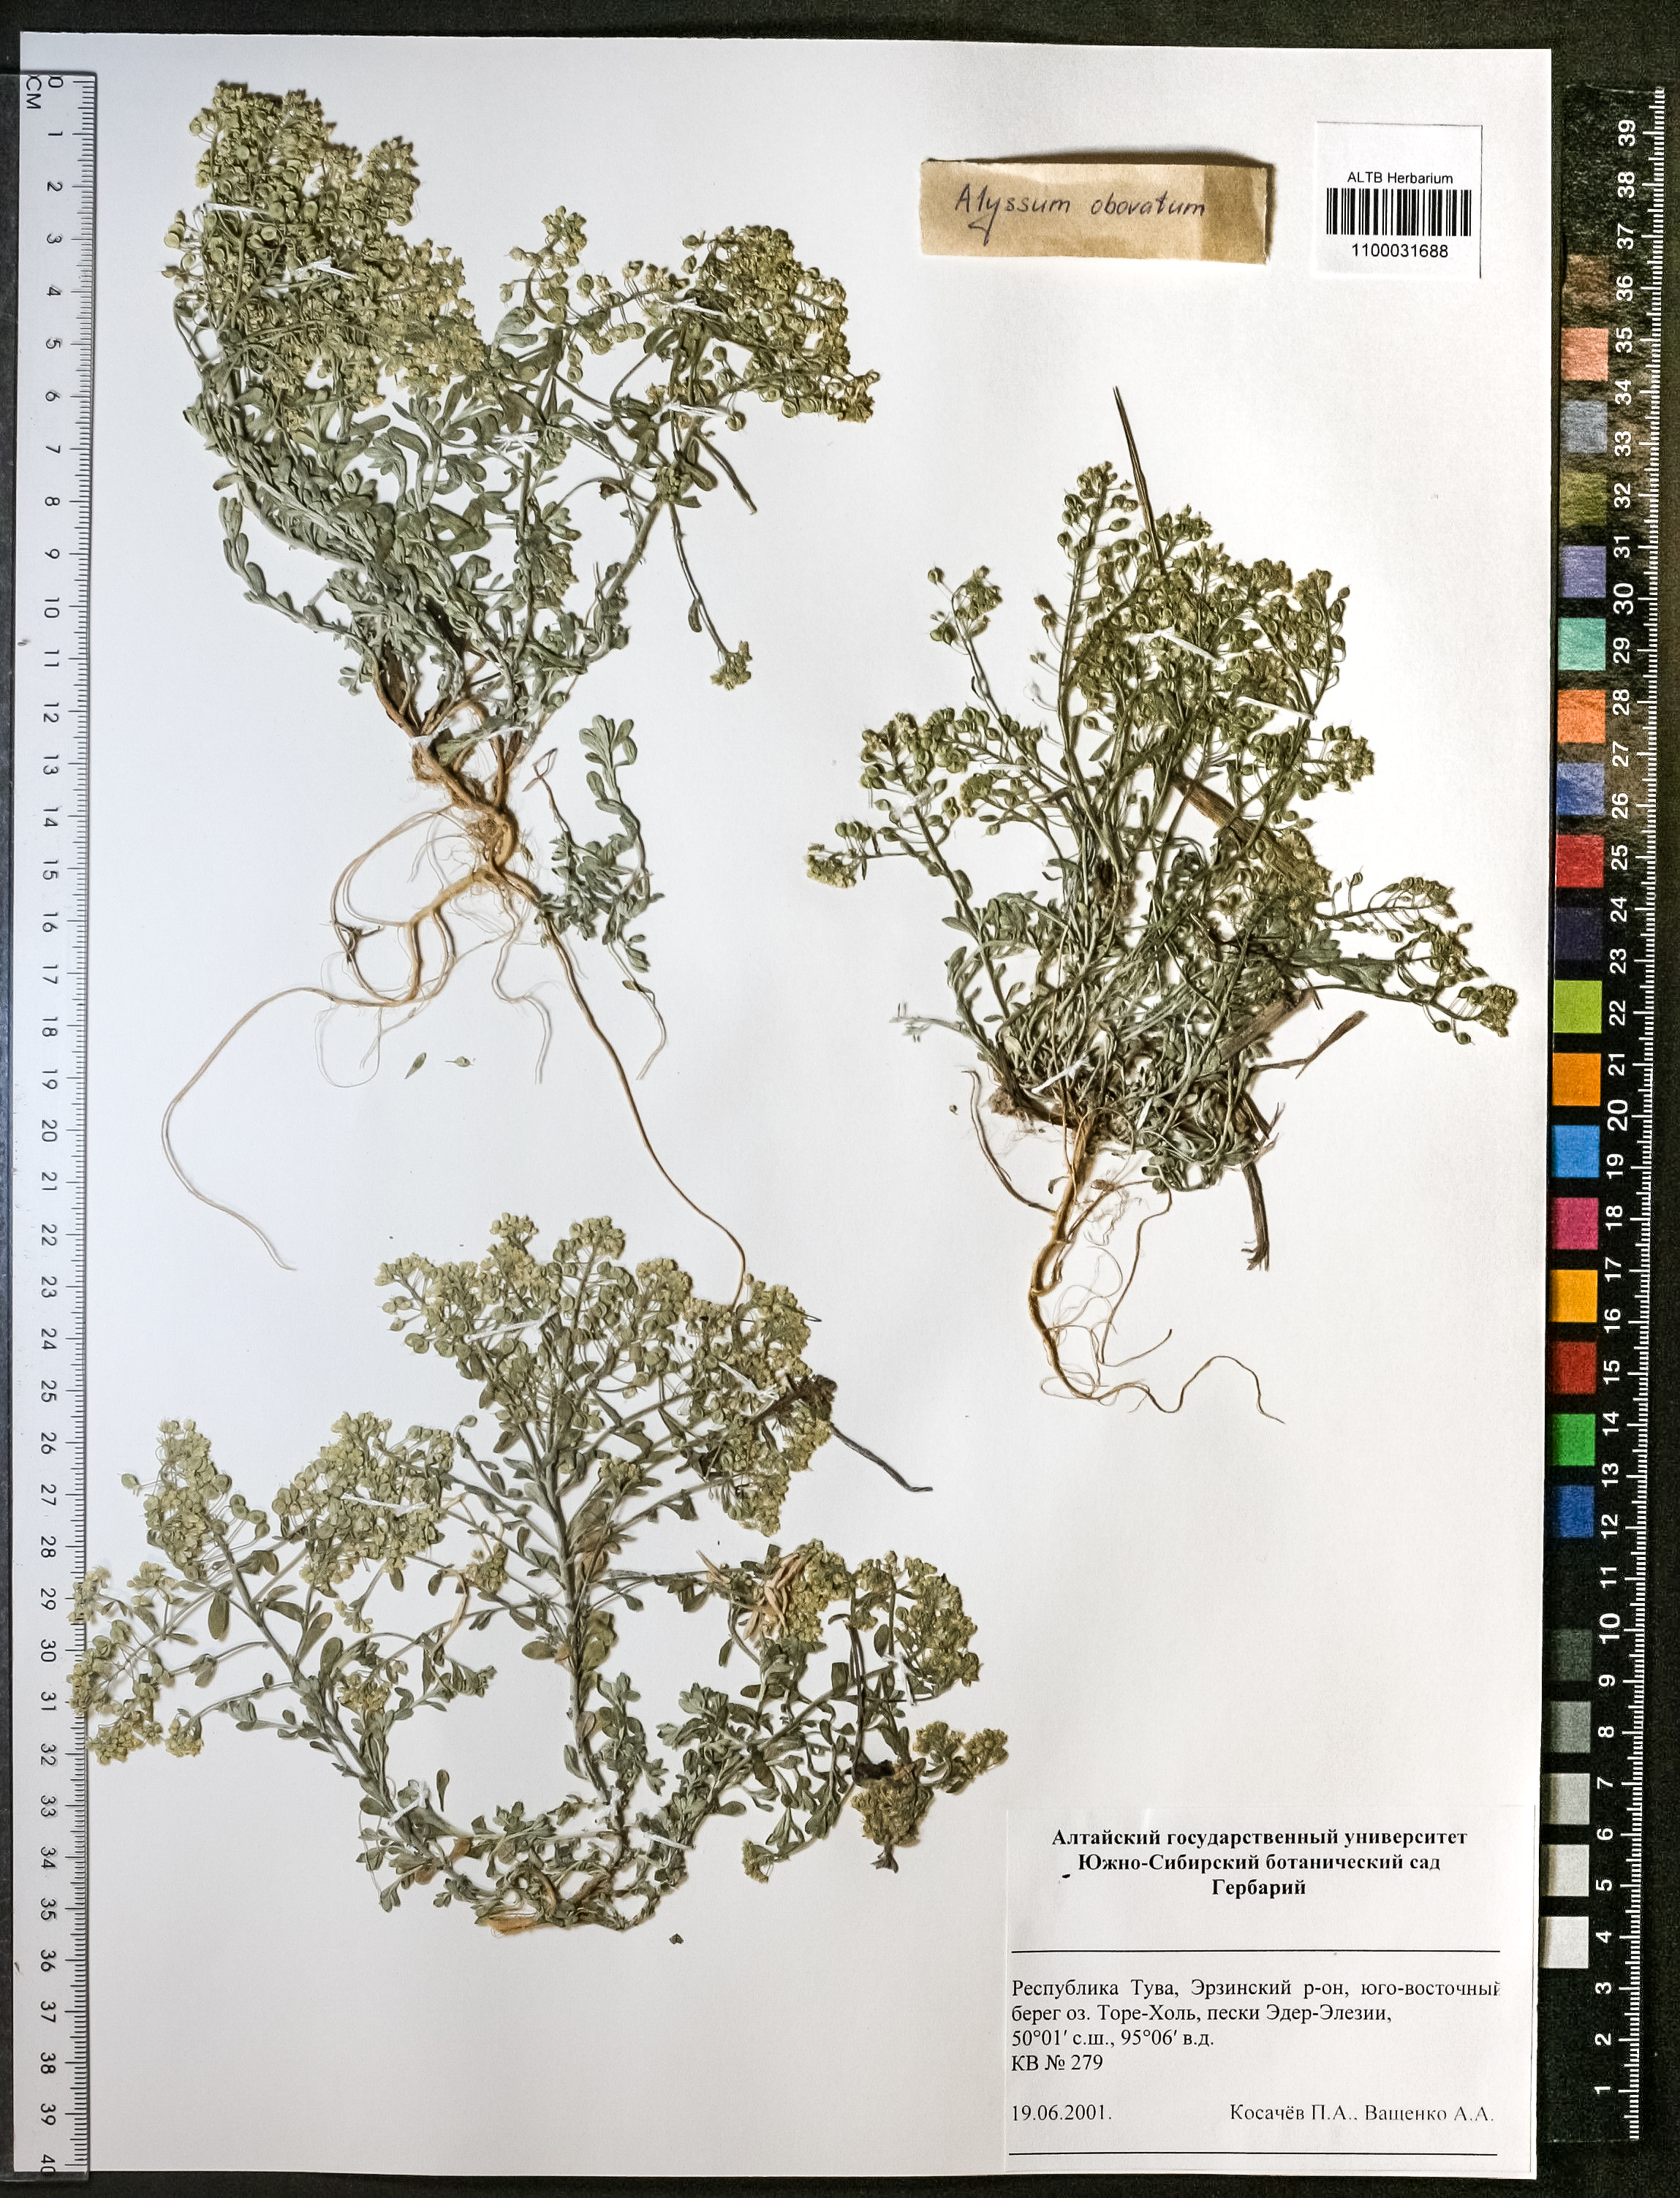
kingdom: Plantae
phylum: Tracheophyta
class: Magnoliopsida
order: Brassicales
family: Brassicaceae
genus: Odontarrhena
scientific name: Odontarrhena obovata
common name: American alyssum
